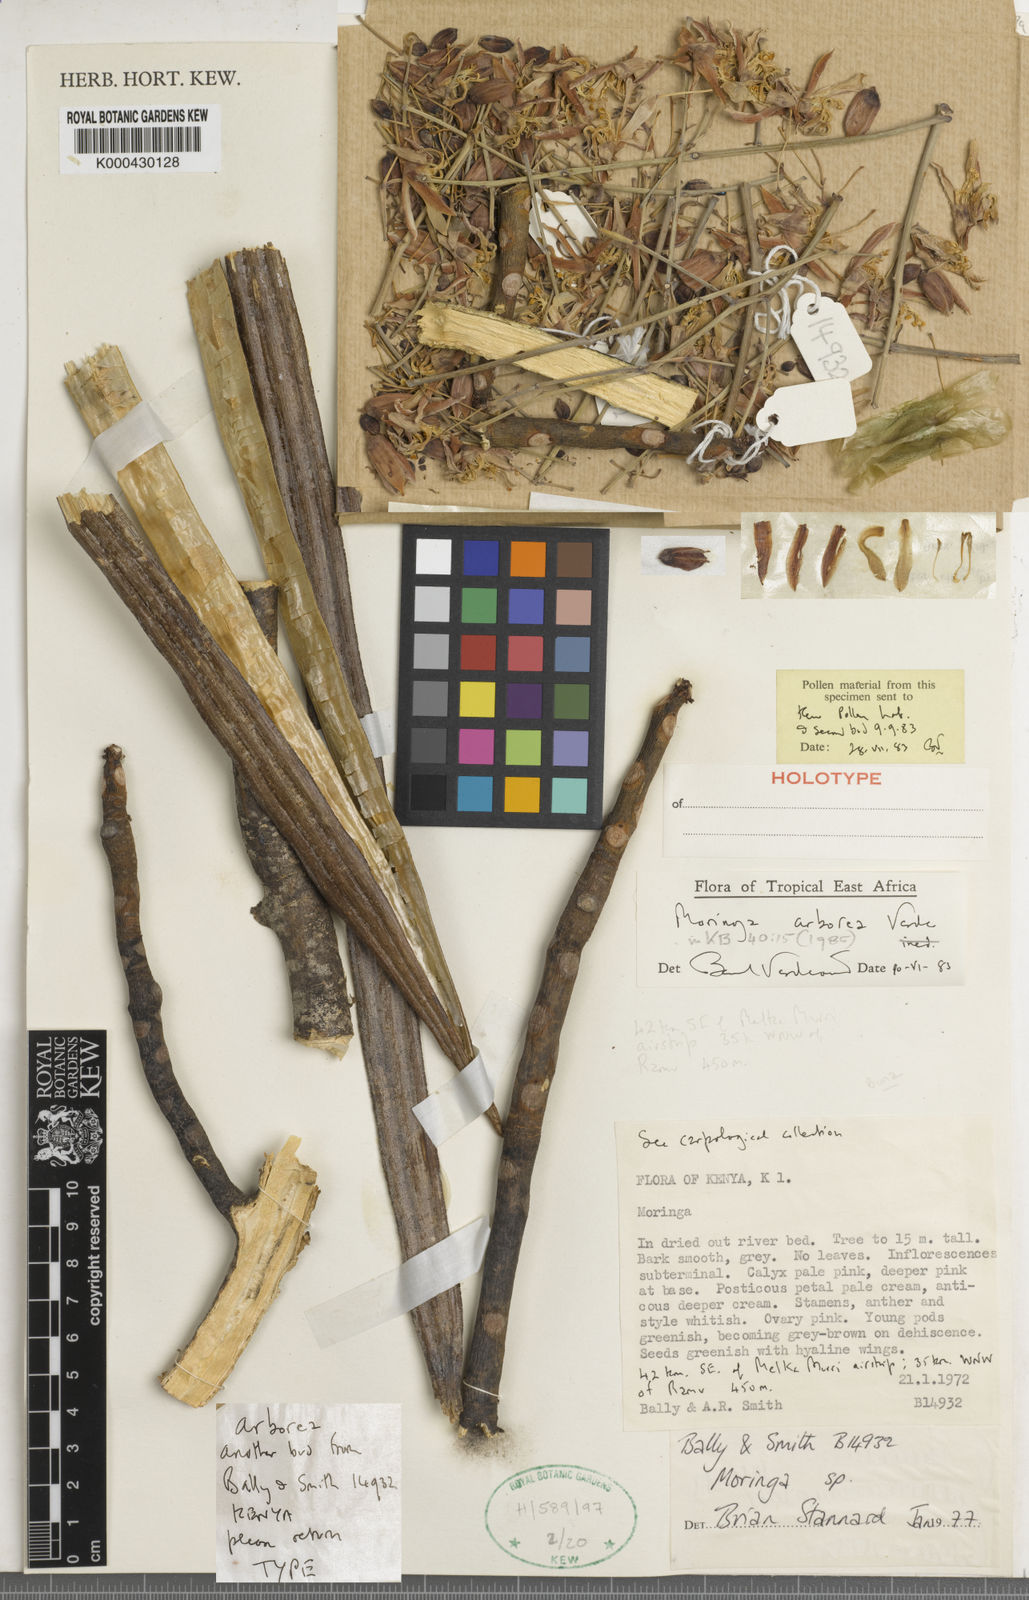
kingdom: Plantae
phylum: Tracheophyta
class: Magnoliopsida
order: Brassicales
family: Moringaceae
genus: Moringa
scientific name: Moringa arborea
